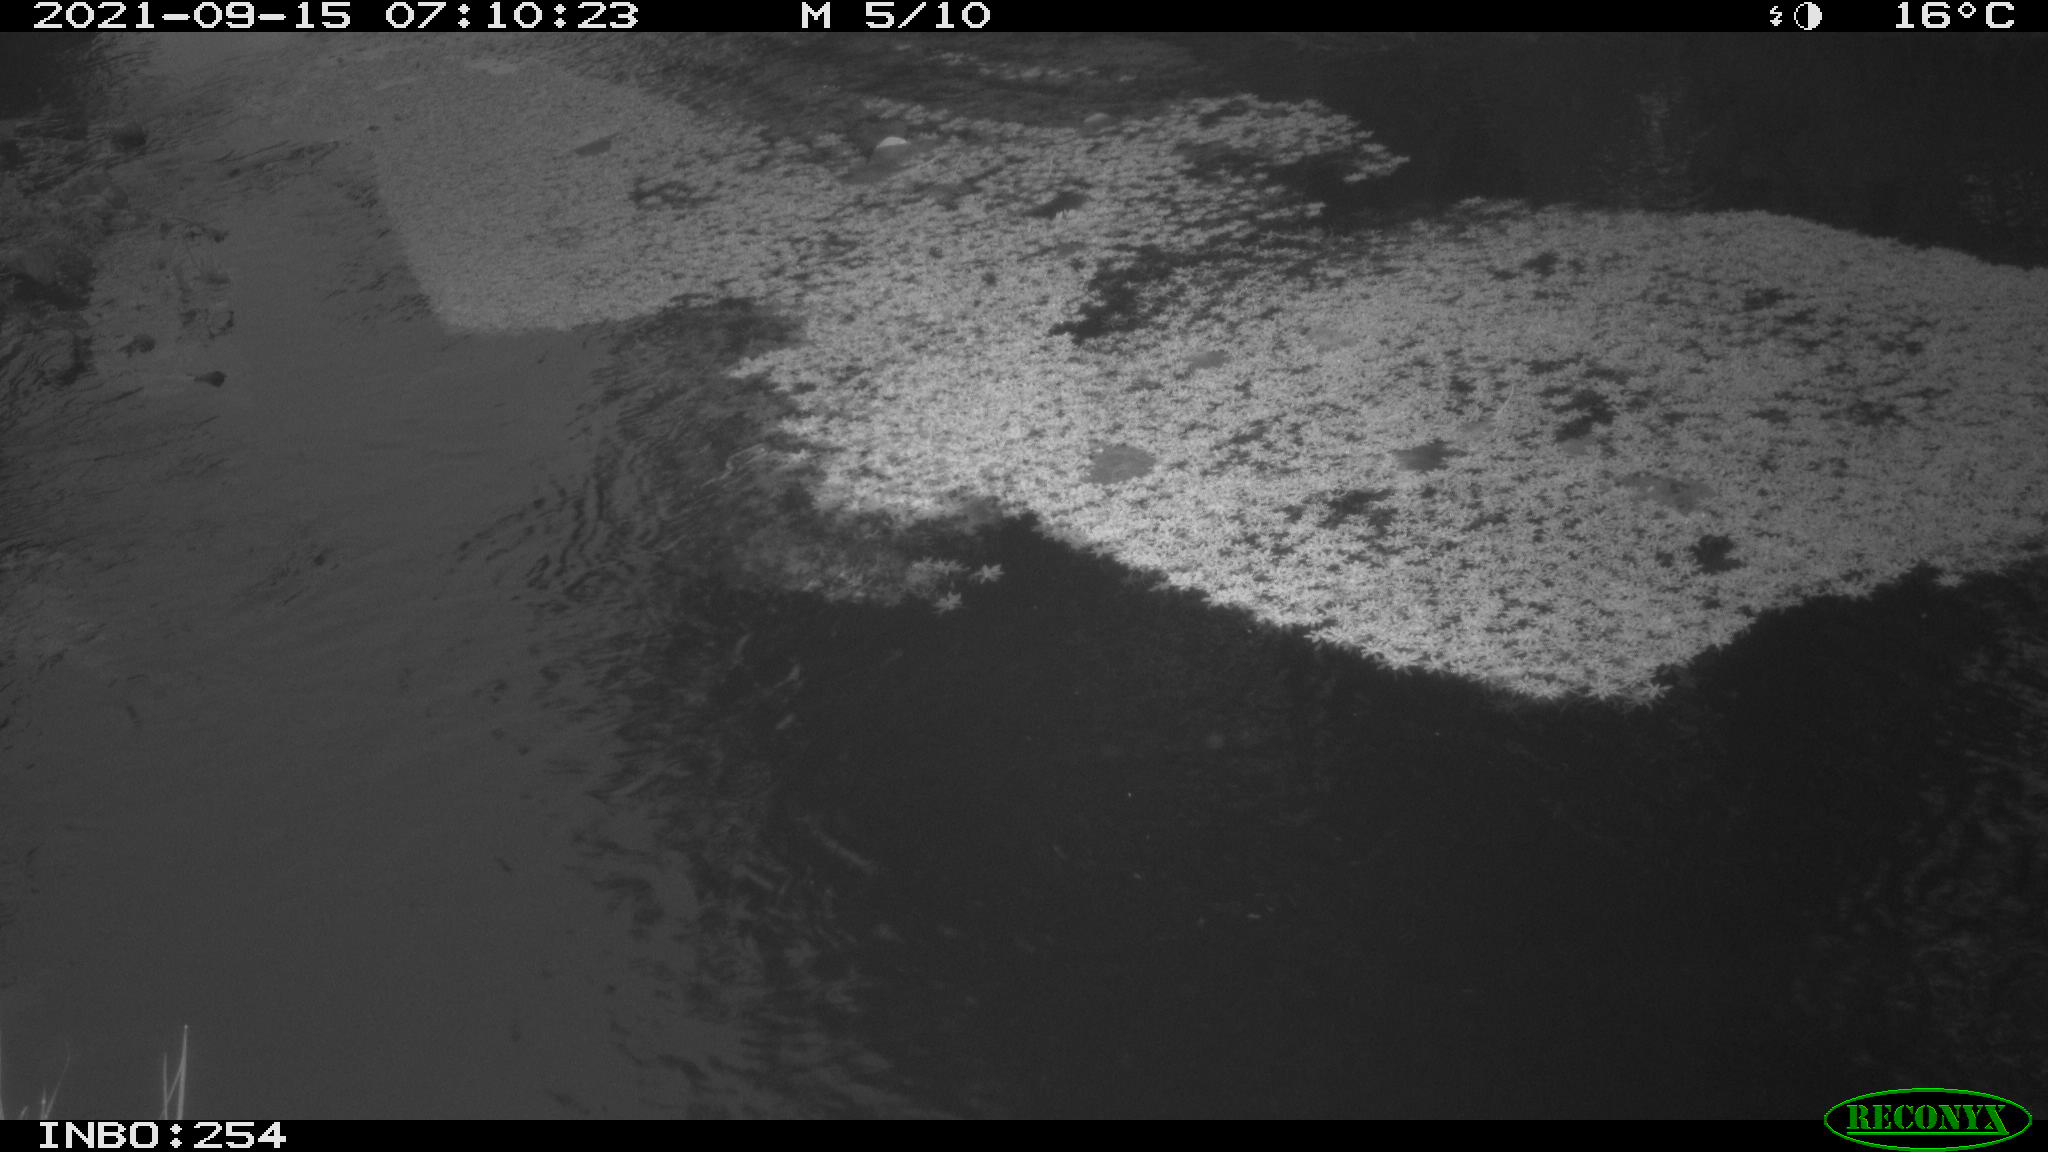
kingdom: Animalia
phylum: Chordata
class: Aves
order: Gruiformes
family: Rallidae
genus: Gallinula
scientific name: Gallinula chloropus
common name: Common moorhen
